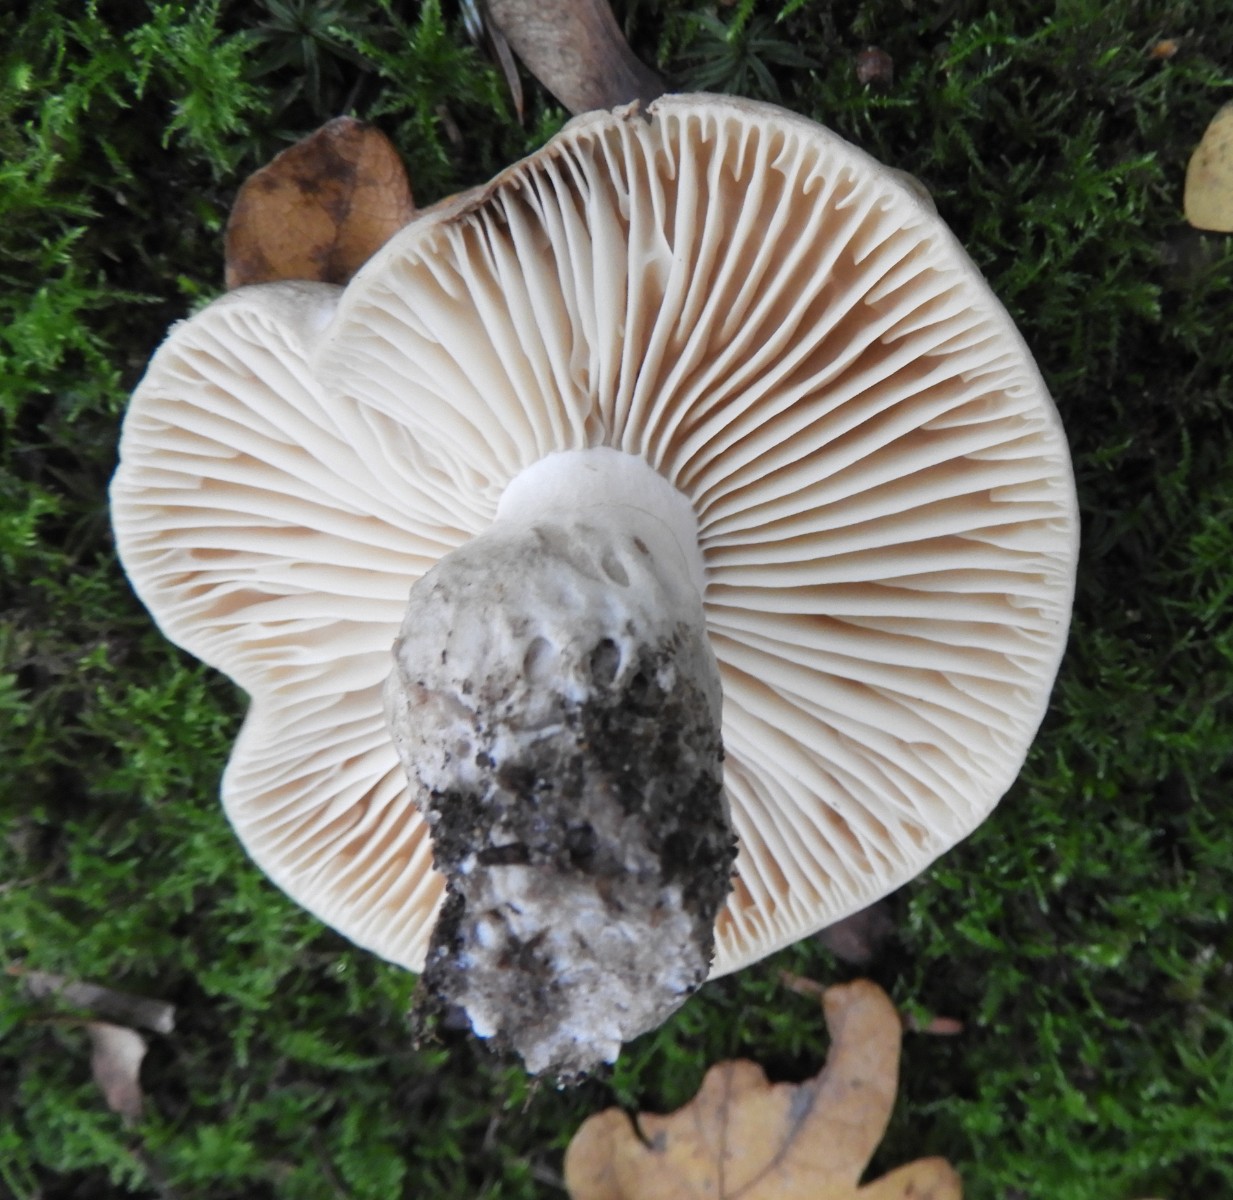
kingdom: Fungi
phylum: Basidiomycota
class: Agaricomycetes
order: Russulales
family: Russulaceae
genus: Russula
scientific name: Russula adusta
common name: sværtende skørhat
